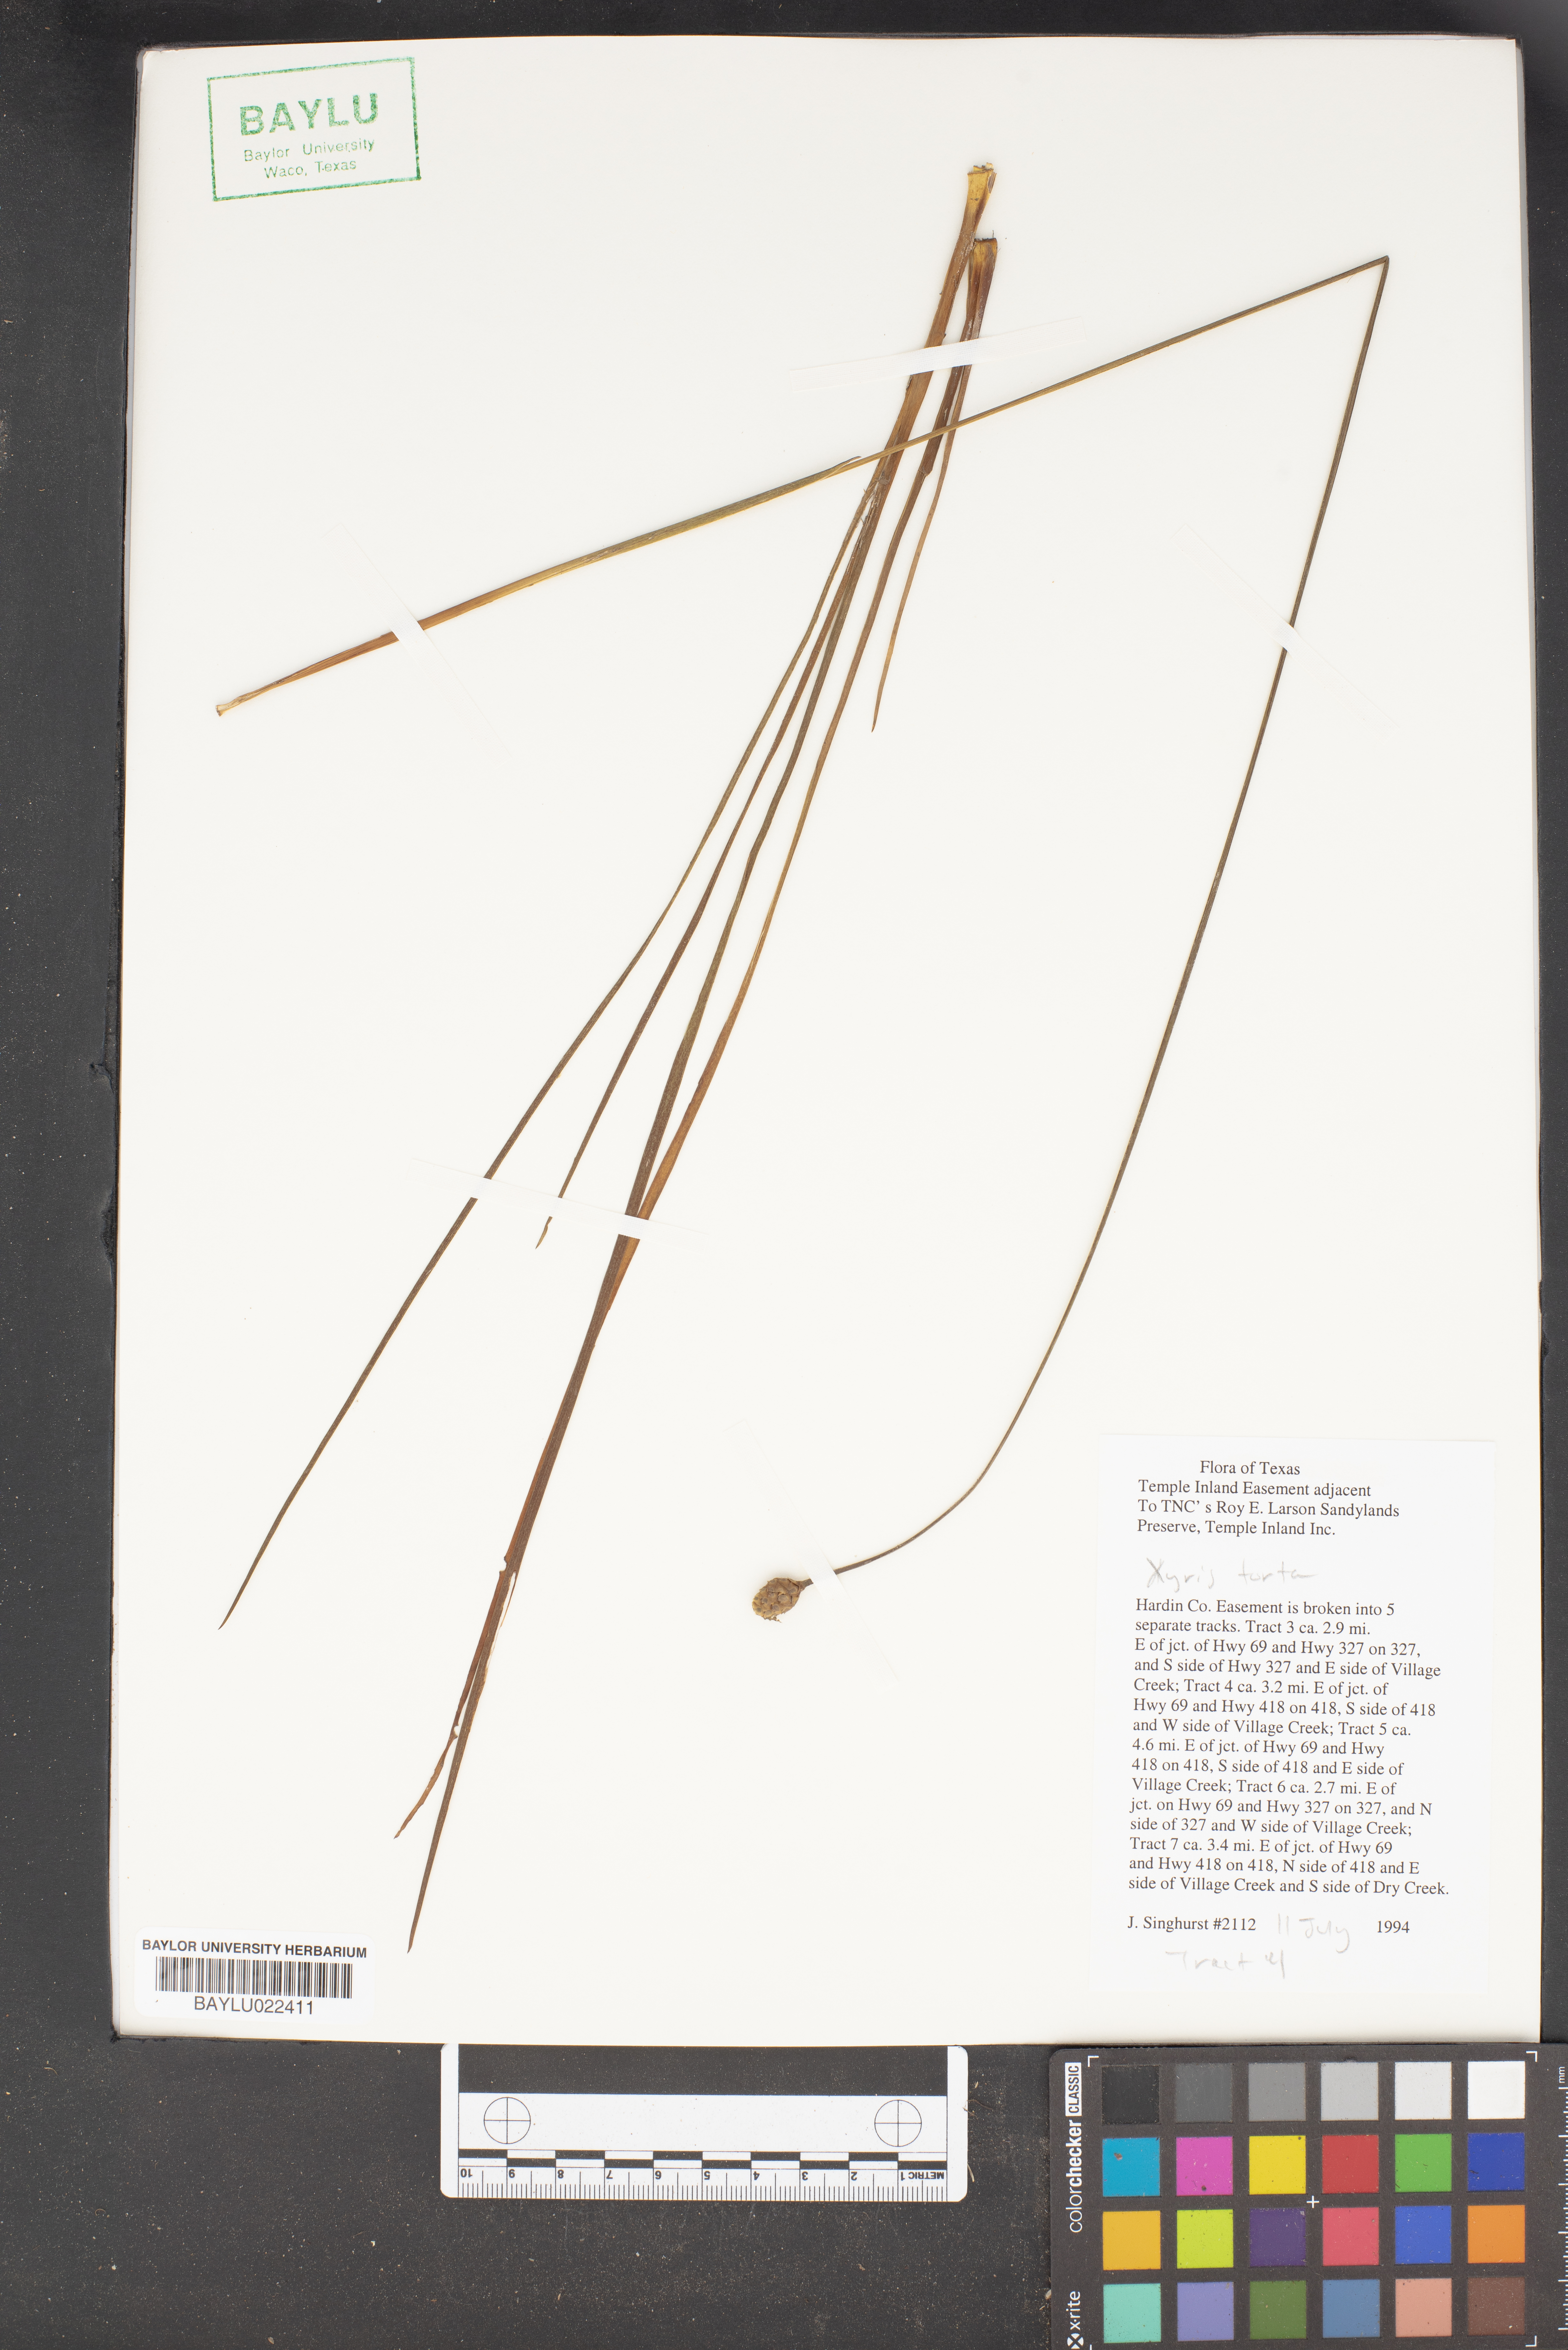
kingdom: Plantae
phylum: Tracheophyta
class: Liliopsida
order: Poales
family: Xyridaceae
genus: Xyris
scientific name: Xyris torta
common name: Common yelloweyed grass
